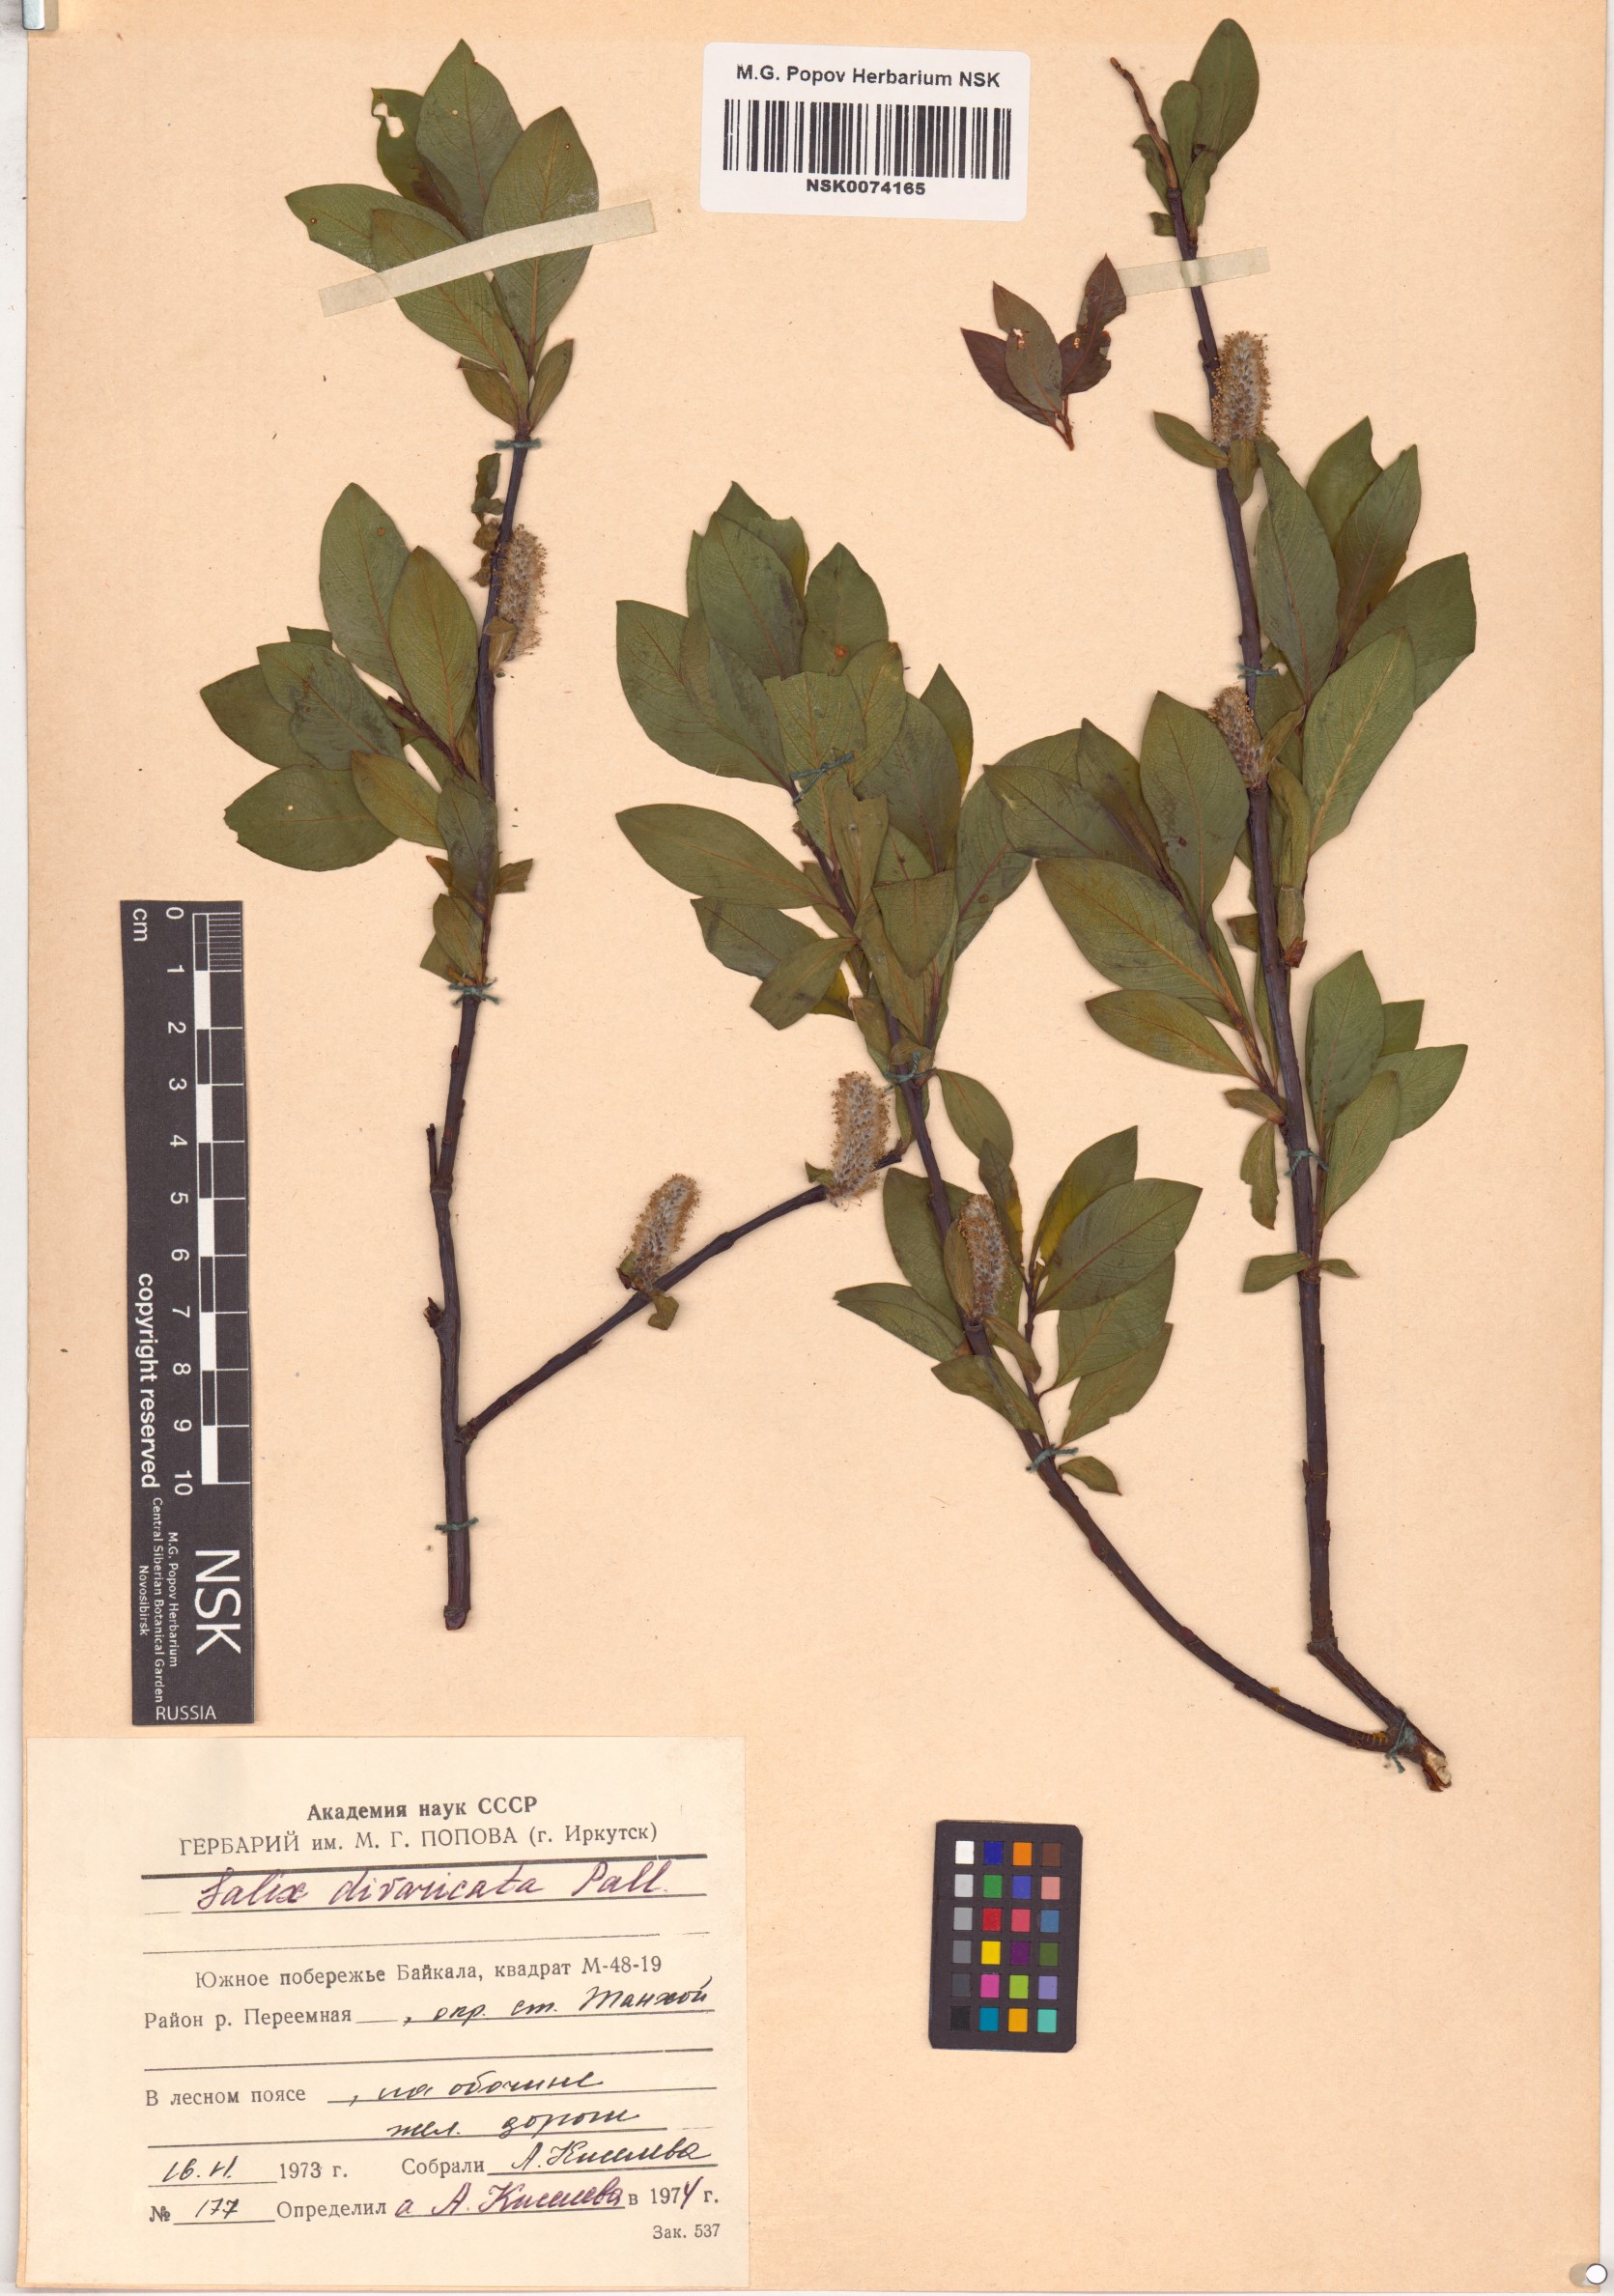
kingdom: Plantae
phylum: Tracheophyta
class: Magnoliopsida
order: Malpighiales
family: Salicaceae
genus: Salix
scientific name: Salix divaricata
